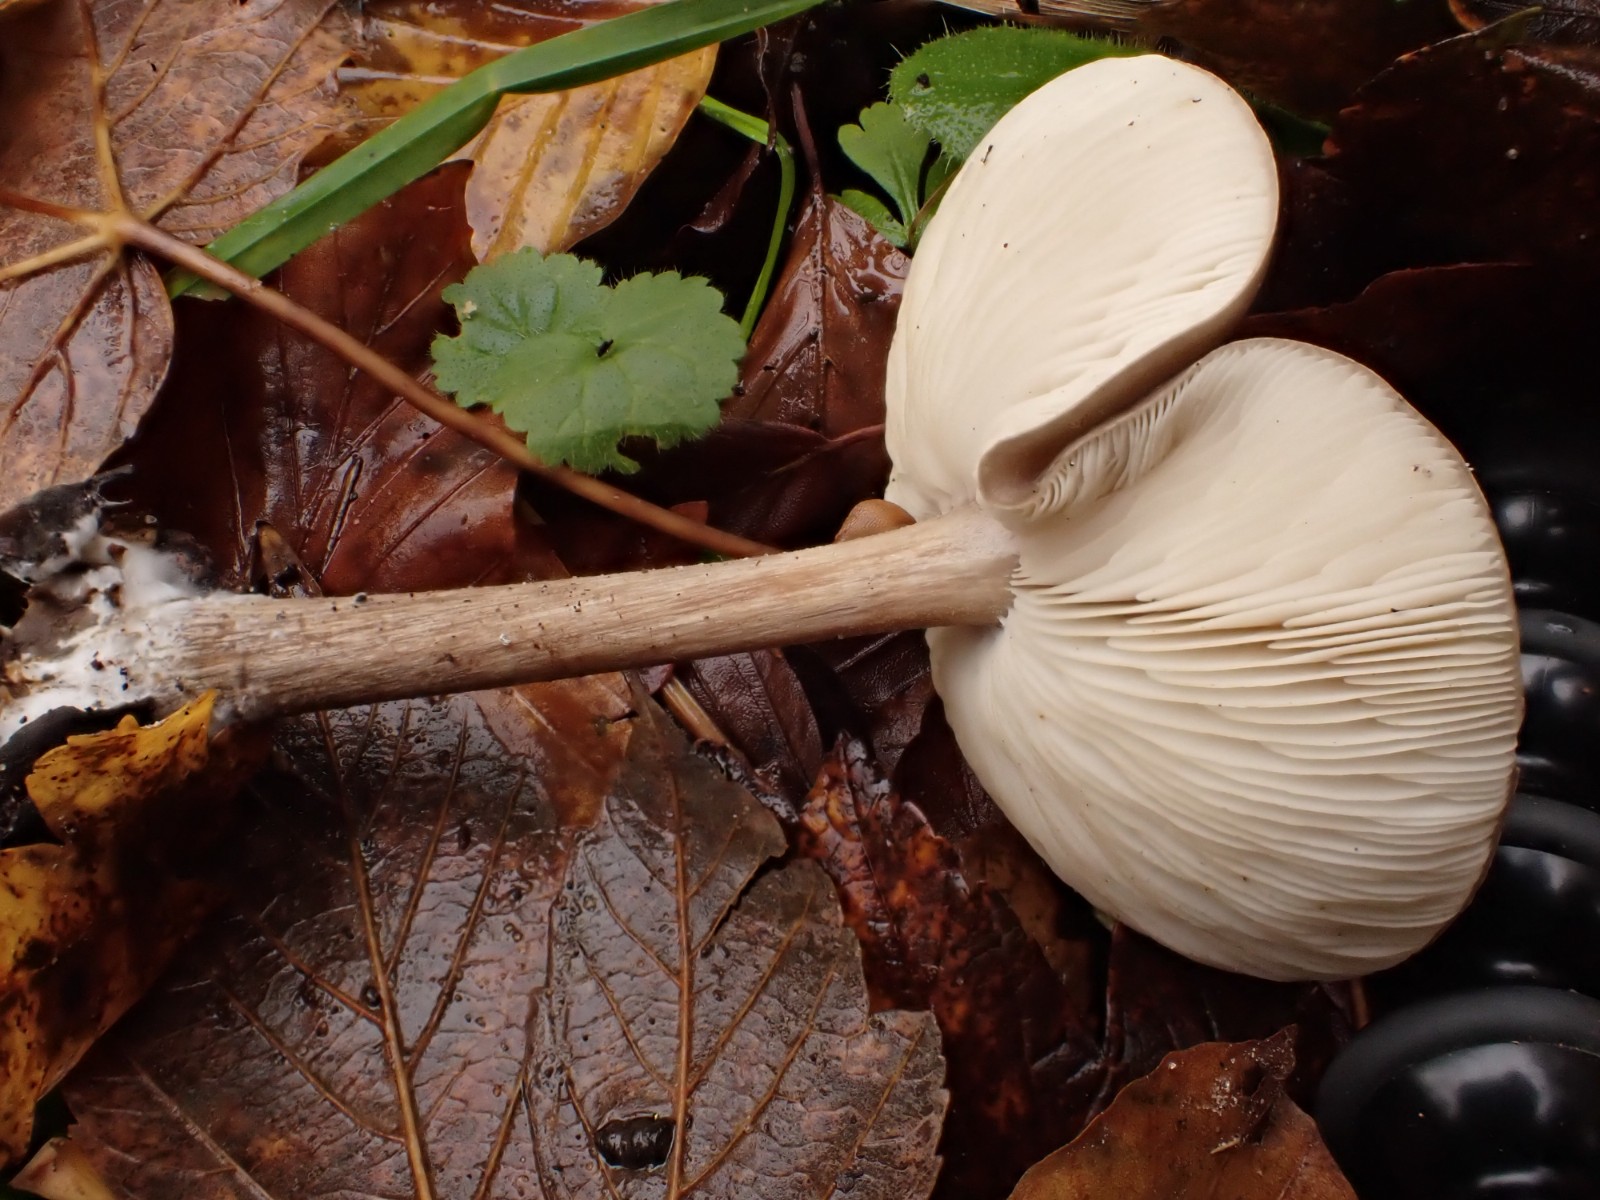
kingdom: Fungi
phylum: Basidiomycota
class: Agaricomycetes
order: Agaricales
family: Tricholomataceae
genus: Melanoleuca
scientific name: Melanoleuca
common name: munkehat
